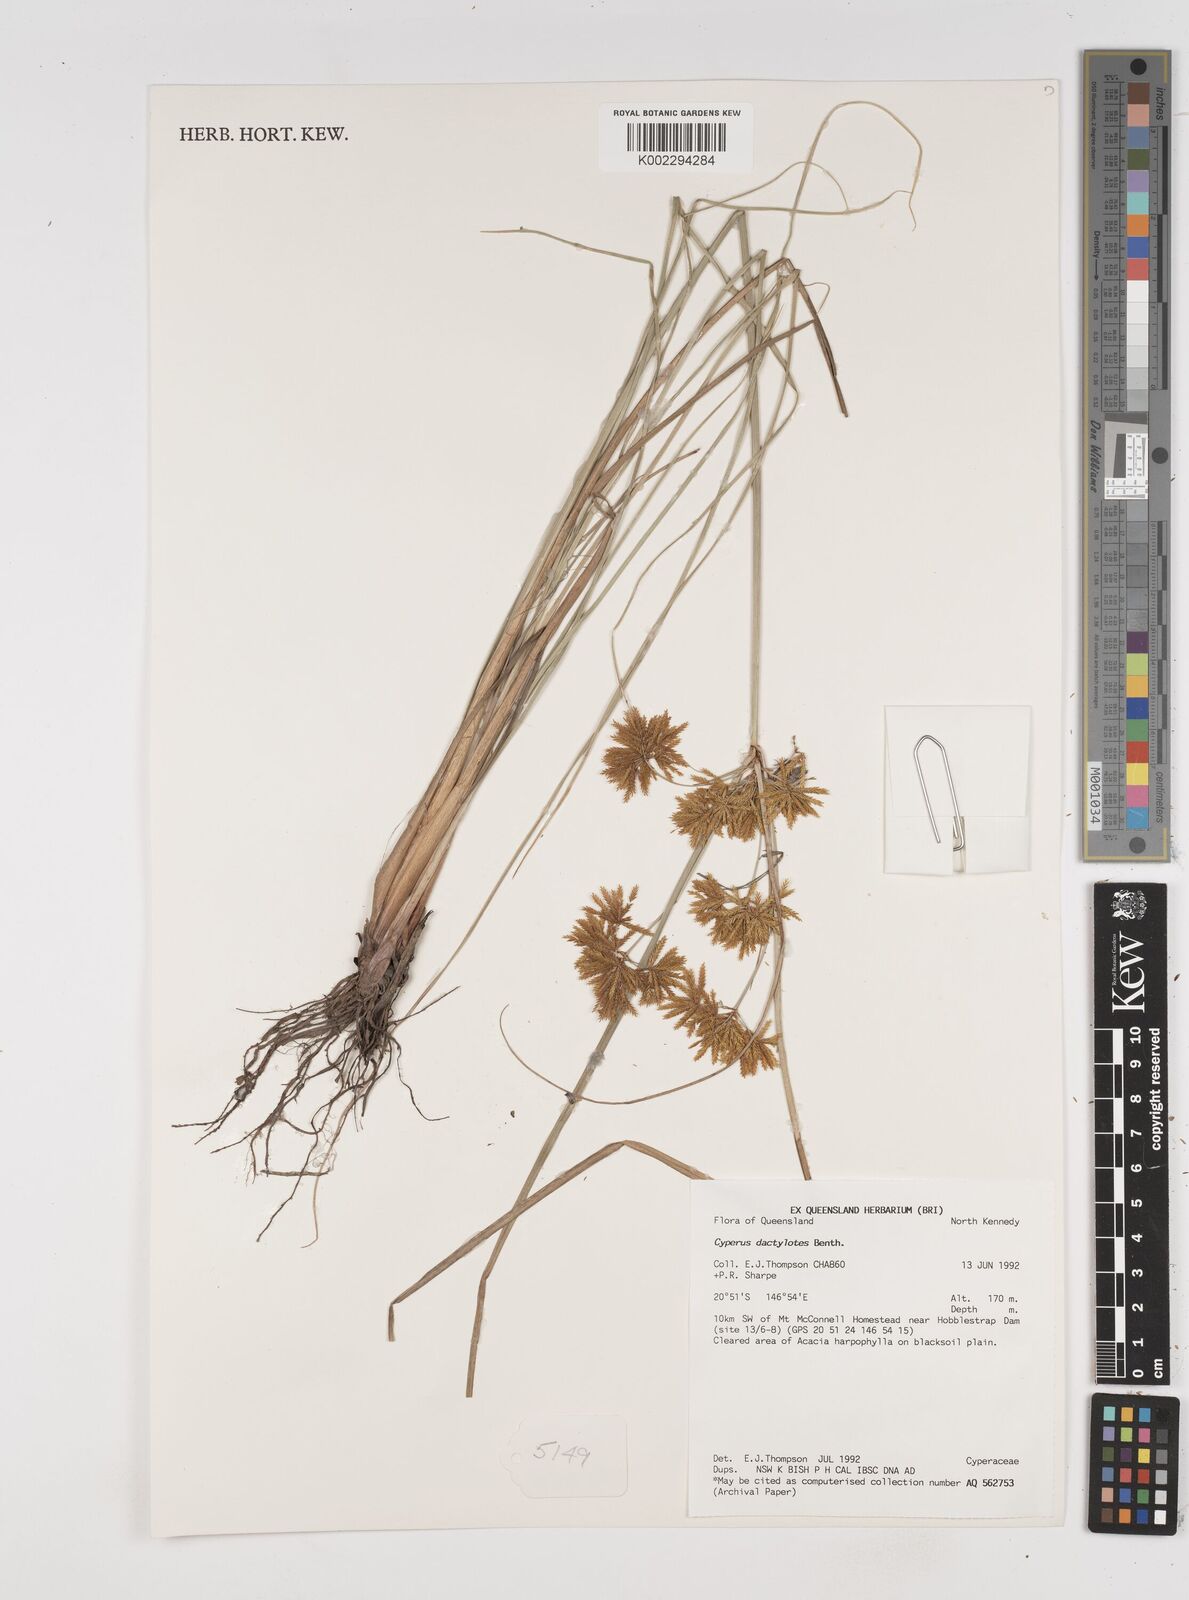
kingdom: Plantae
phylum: Tracheophyta
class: Liliopsida
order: Poales
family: Cyperaceae
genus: Cyperus
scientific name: Cyperus dactylotes
